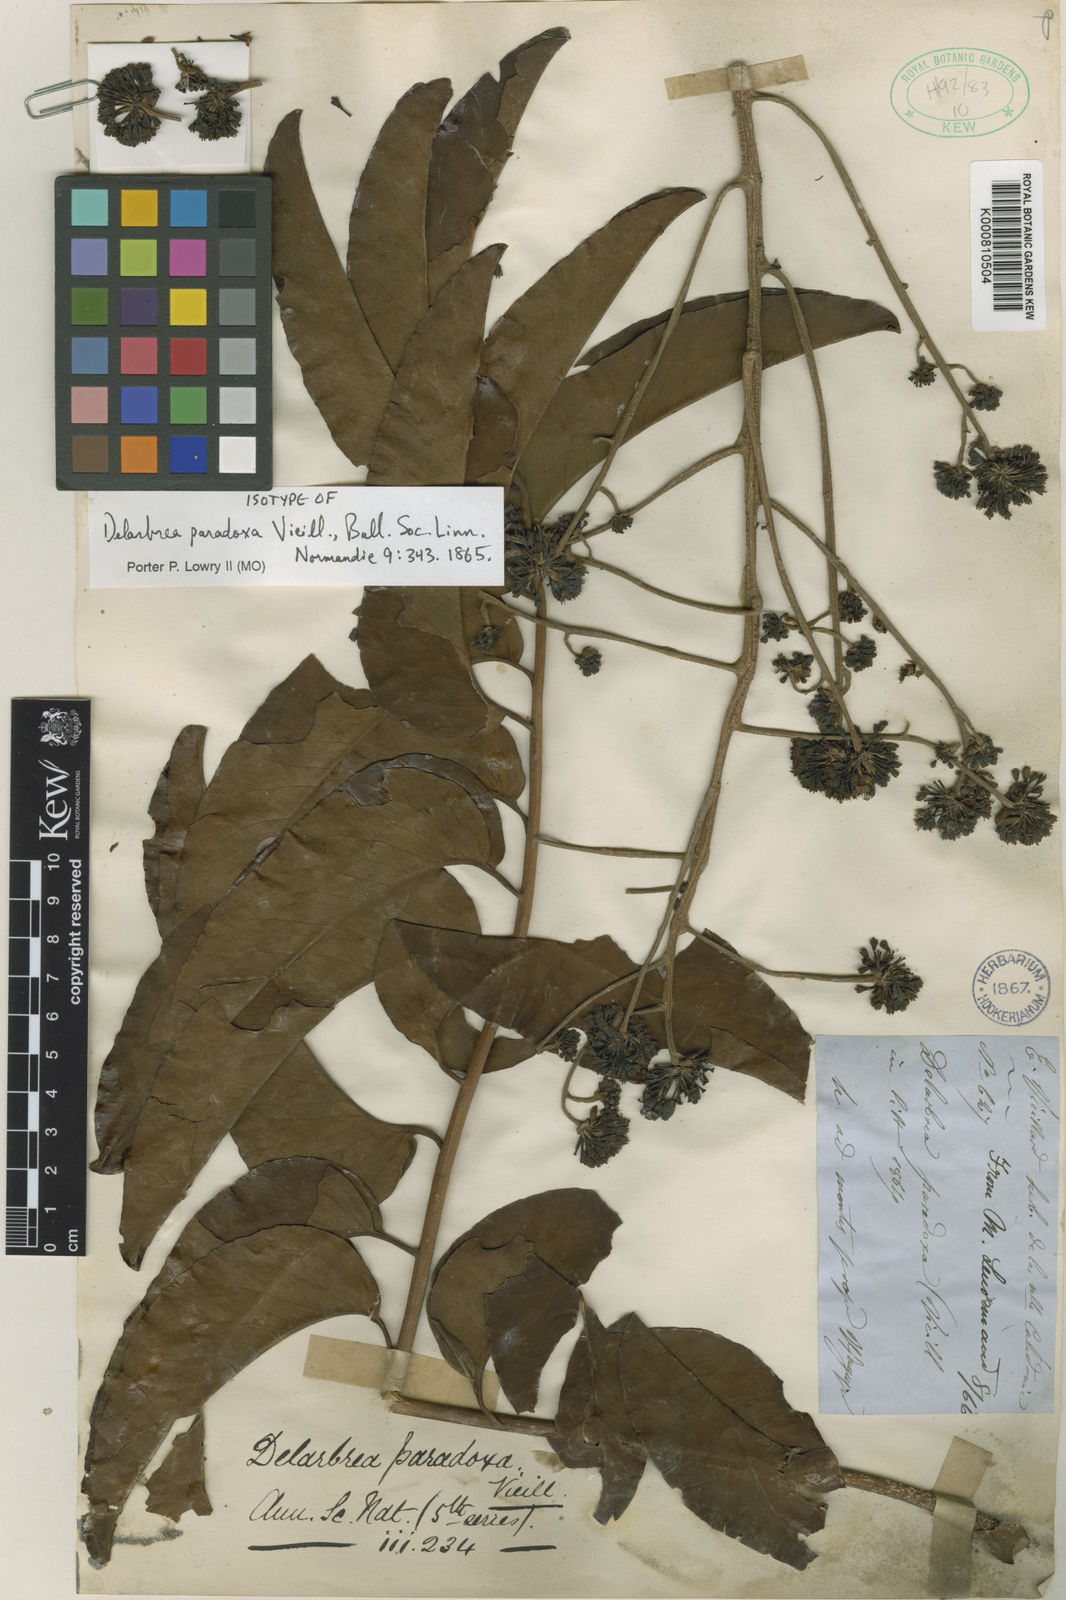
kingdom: Plantae
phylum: Tracheophyta
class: Magnoliopsida
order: Apiales
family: Myodocarpaceae
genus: Delarbrea
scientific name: Delarbrea paradoxa
